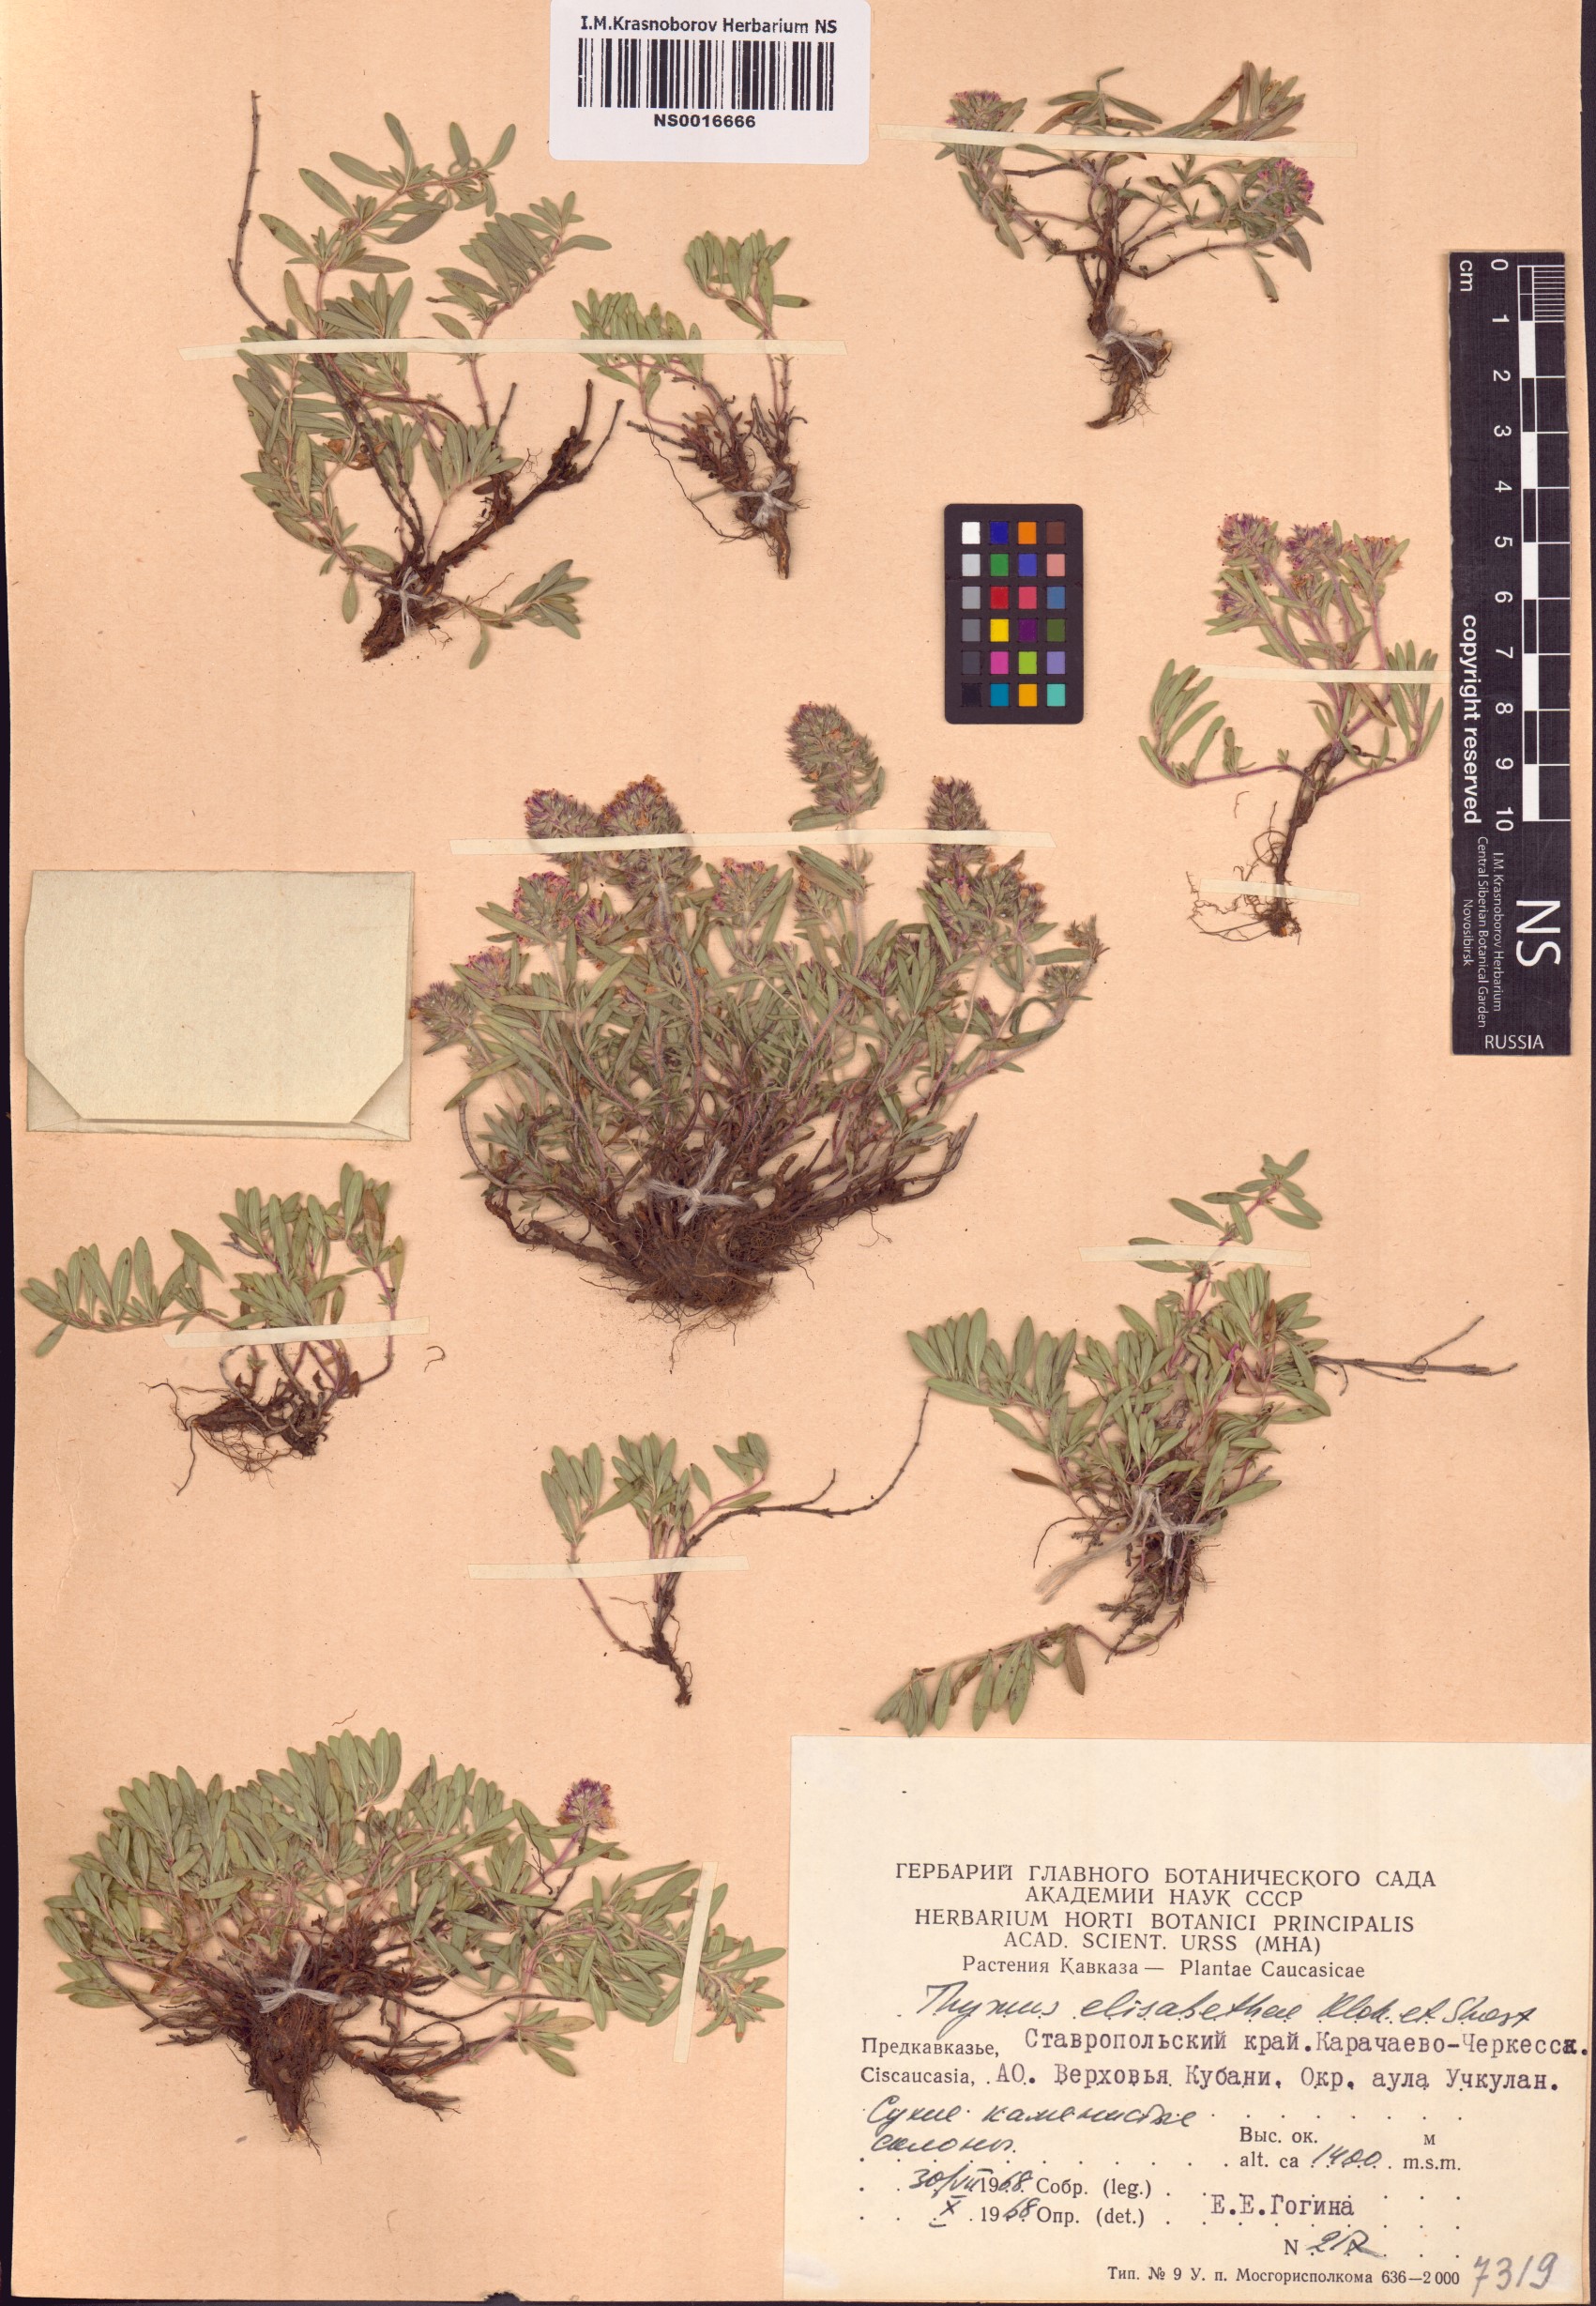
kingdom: Plantae
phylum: Tracheophyta
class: Magnoliopsida
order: Lamiales
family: Lamiaceae
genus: Thymus
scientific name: Thymus elisabethae
